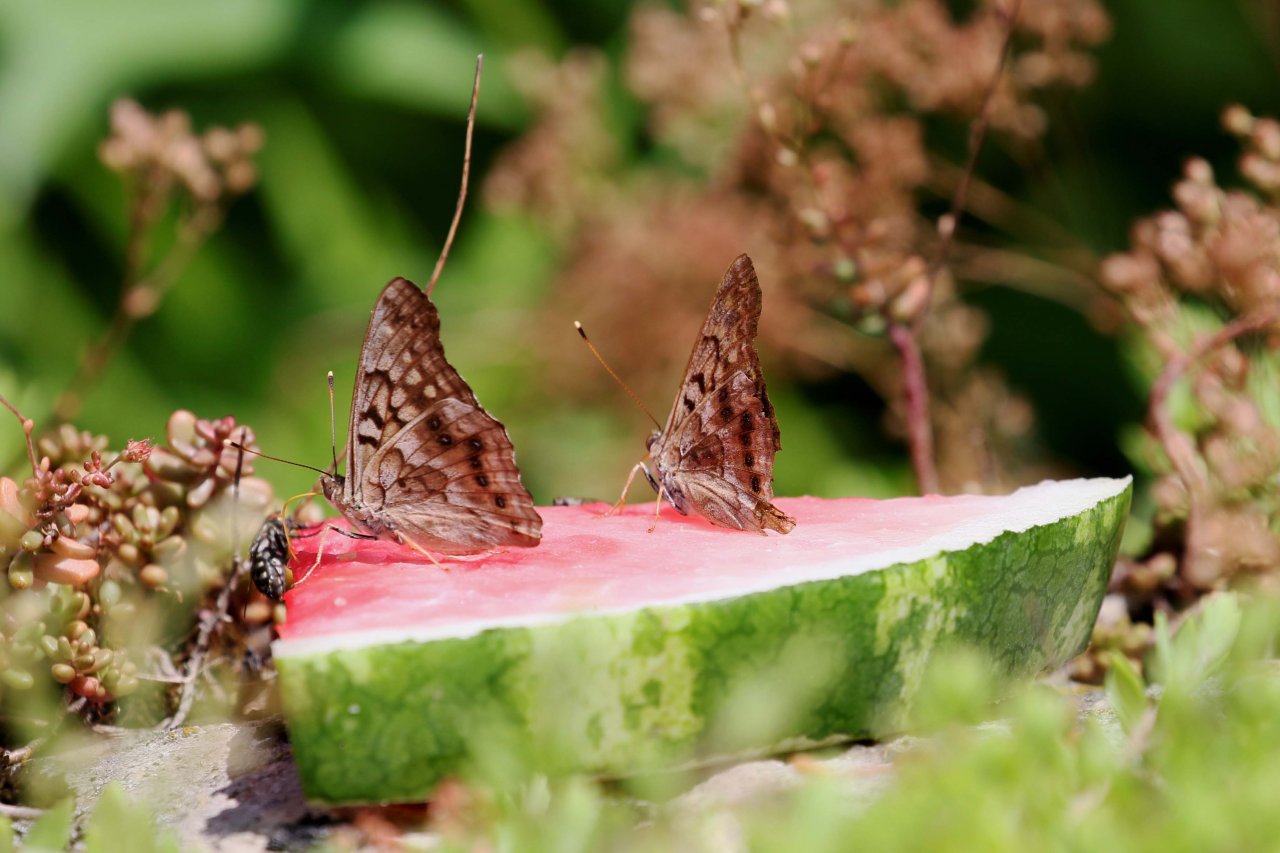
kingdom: Animalia
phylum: Arthropoda
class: Insecta
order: Lepidoptera
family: Nymphalidae
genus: Asterocampa
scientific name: Asterocampa clyton
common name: Tawny Emperor
